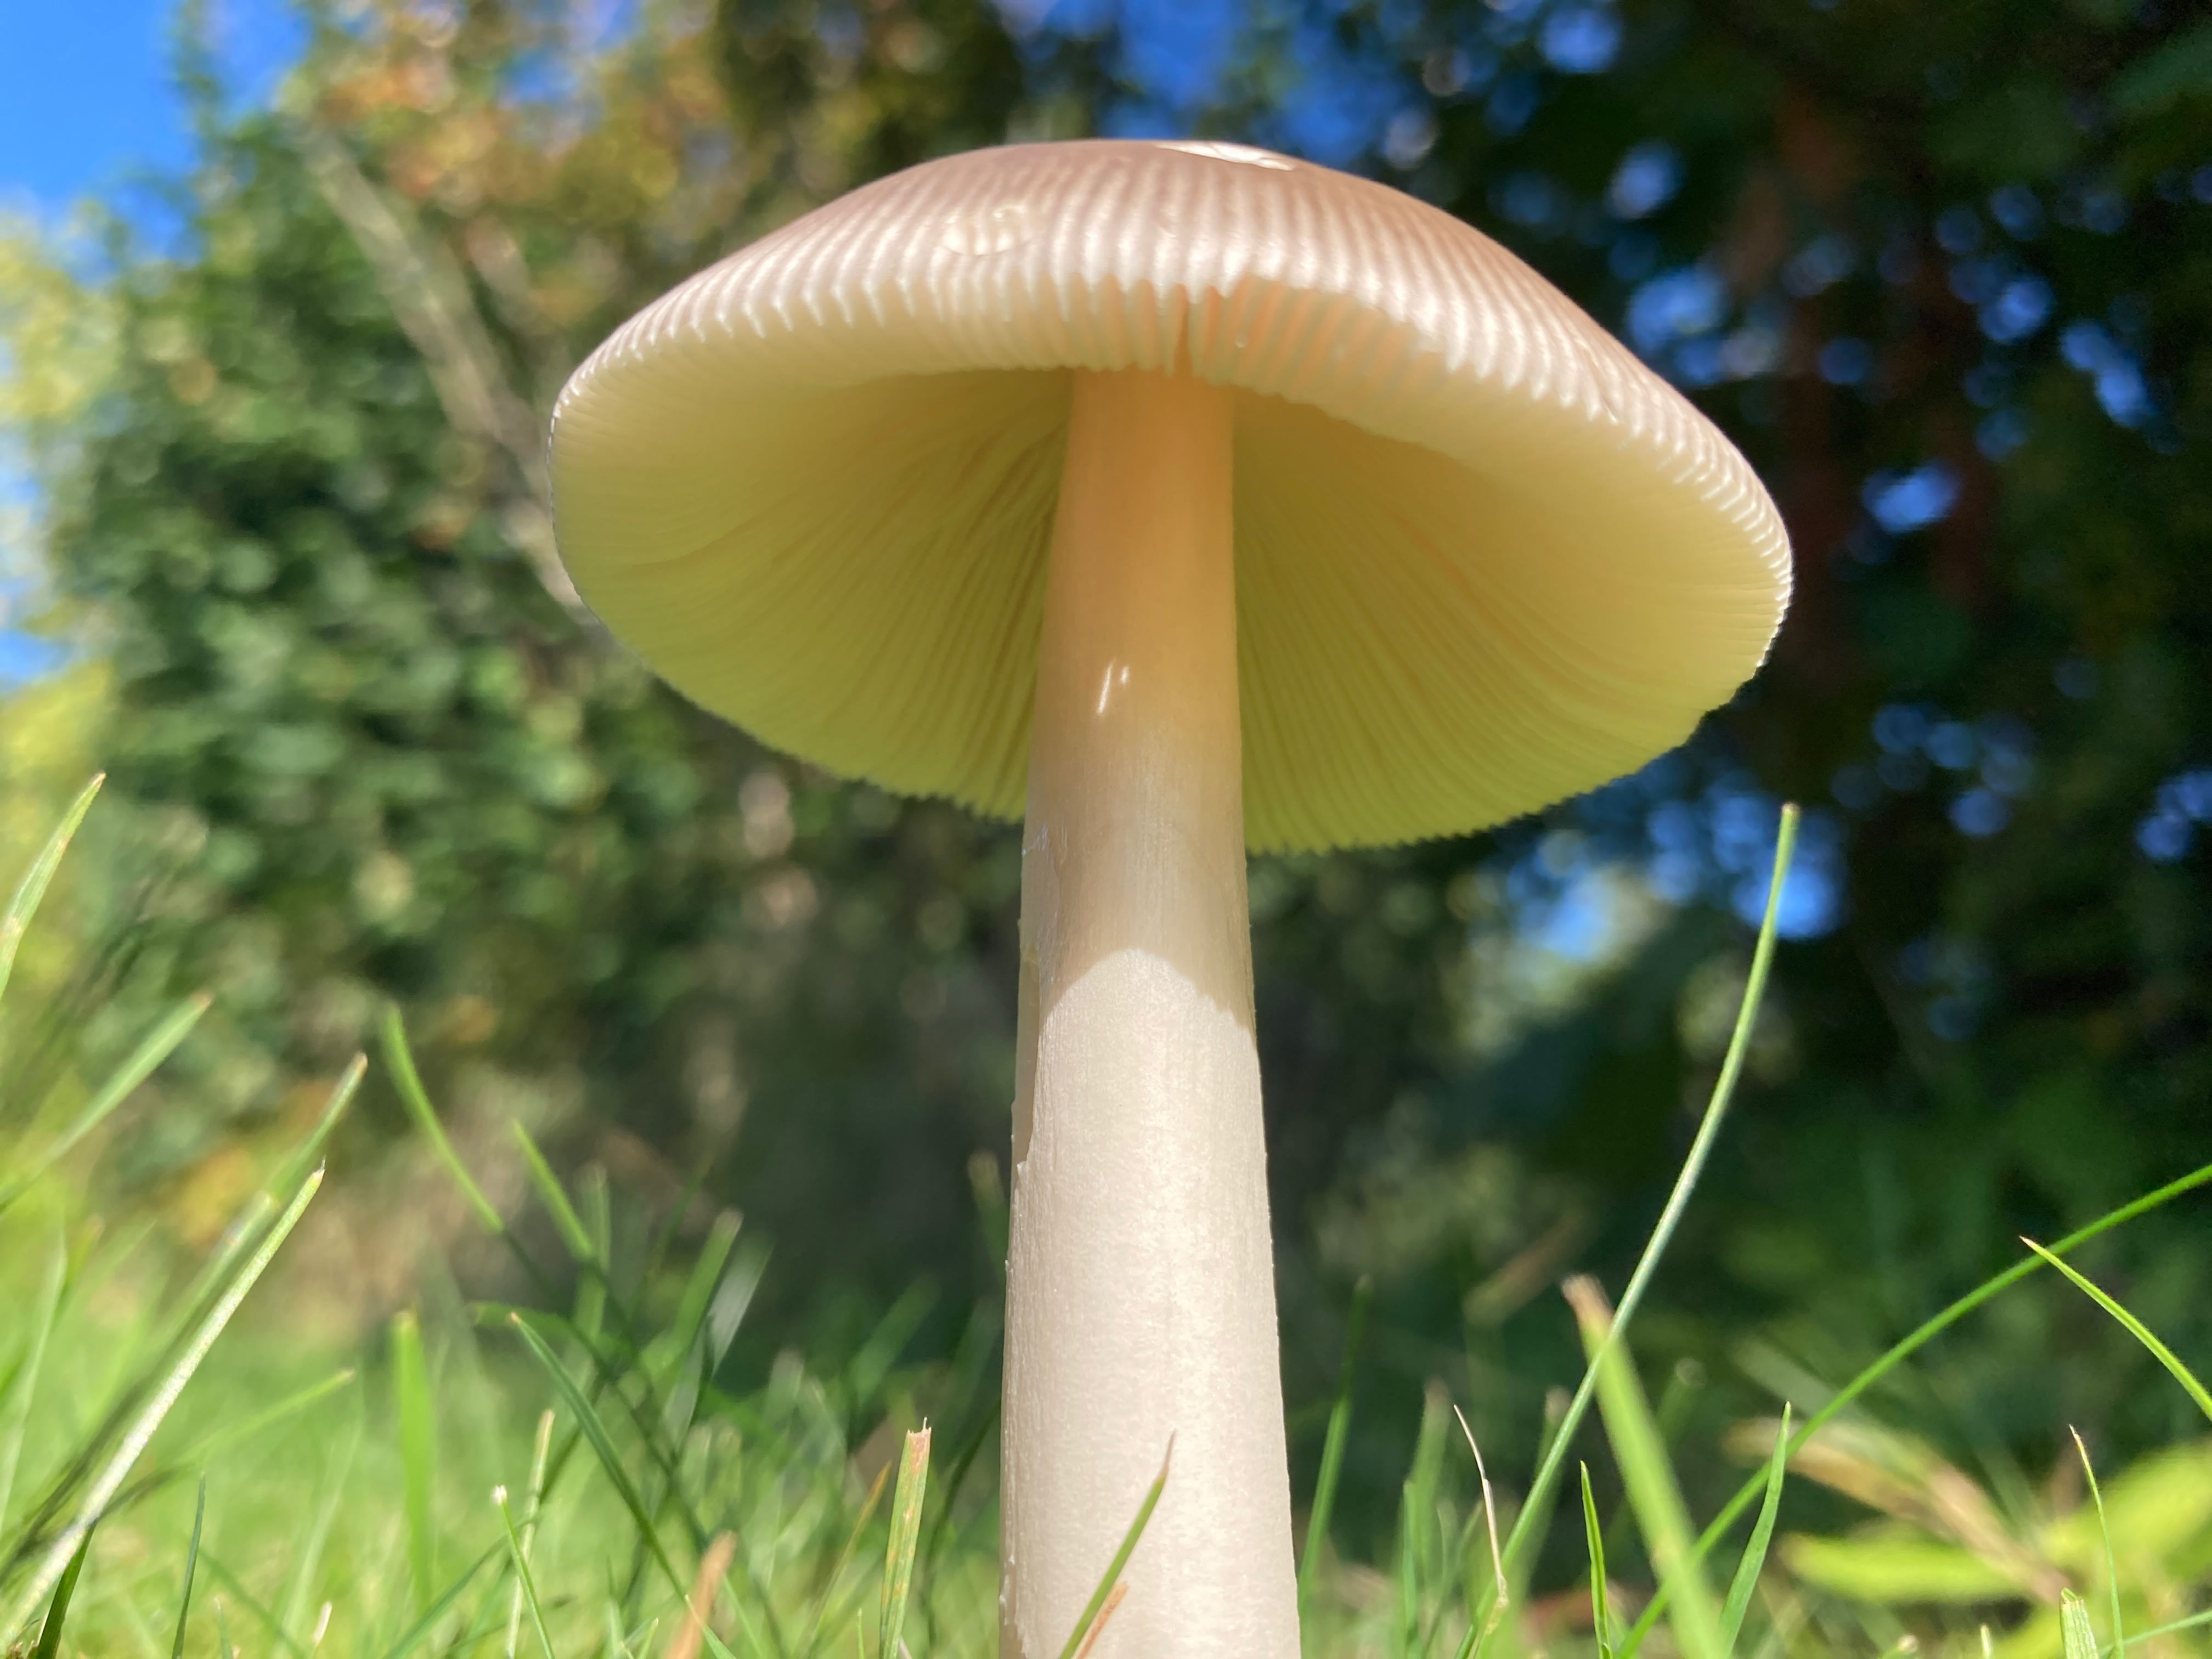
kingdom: Fungi
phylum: Basidiomycota
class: Agaricomycetes
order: Agaricales
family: Amanitaceae
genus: Amanita
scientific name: Amanita fulva
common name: brun kam-fluesvamp
